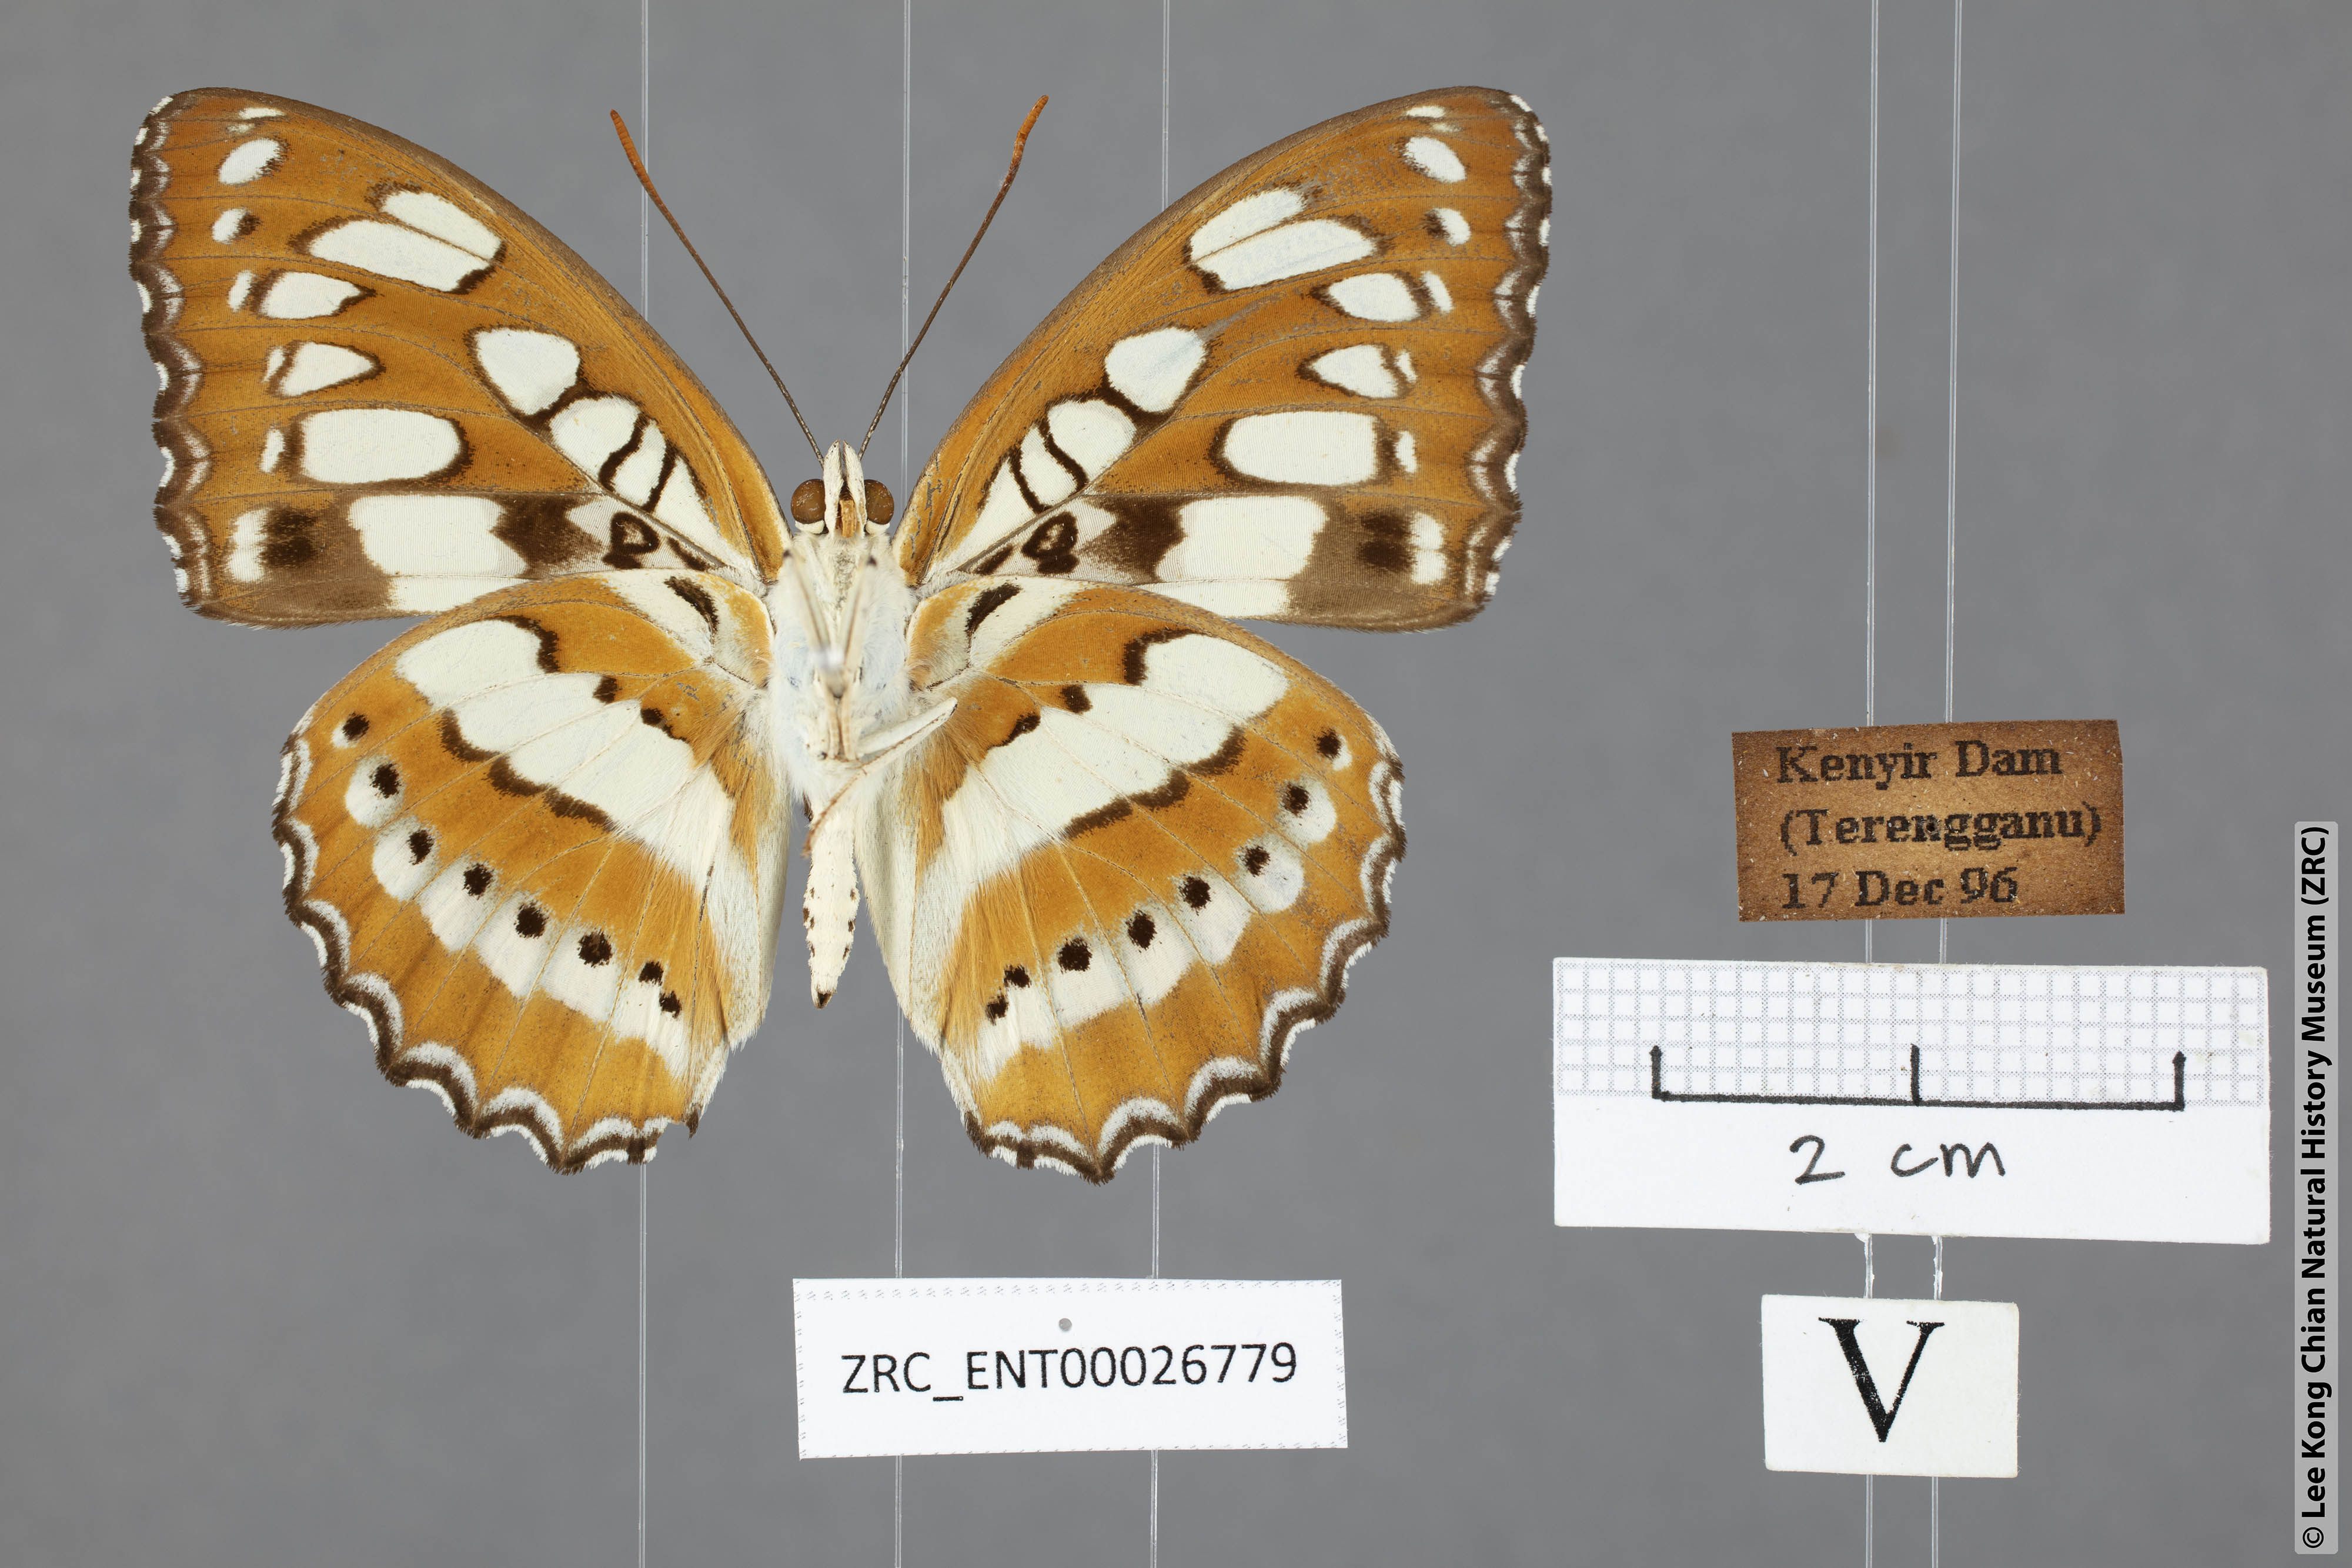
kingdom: Animalia
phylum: Arthropoda
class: Insecta
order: Lepidoptera
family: Nymphalidae
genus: Parathyma
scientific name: Parathyma perius
